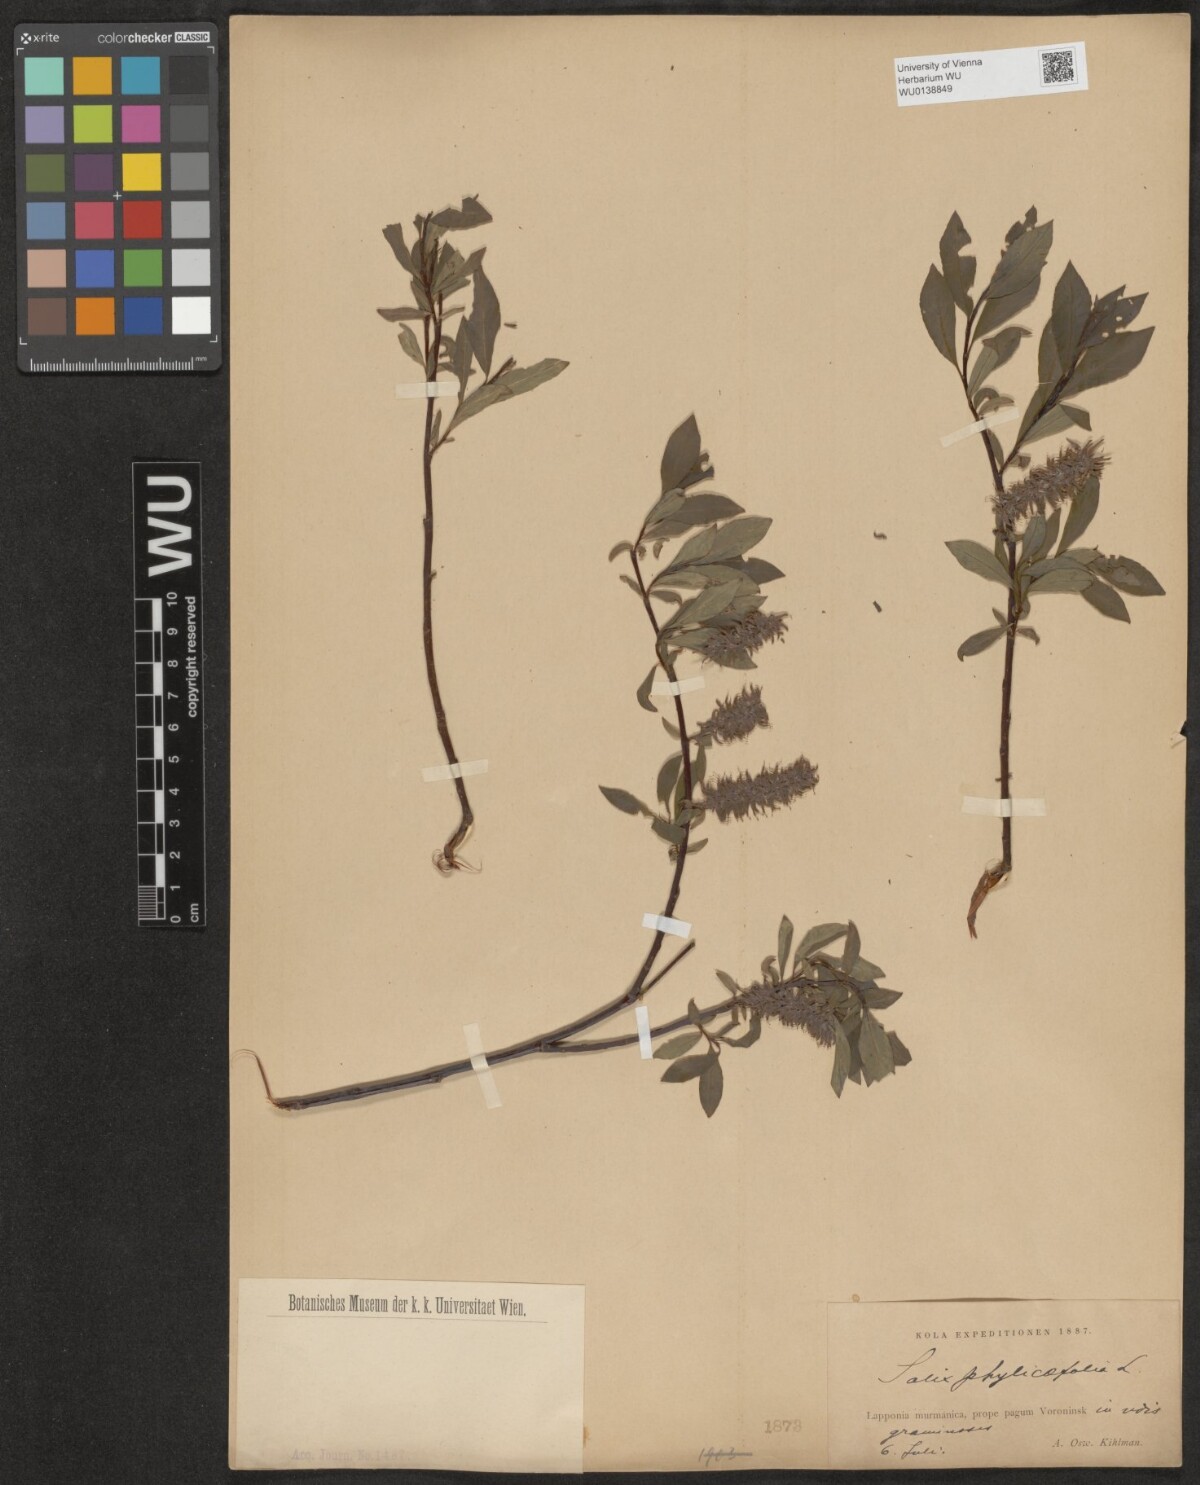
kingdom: Plantae
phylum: Tracheophyta
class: Magnoliopsida
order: Malpighiales
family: Salicaceae
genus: Salix
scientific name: Salix phylicifolia
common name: Tea-leaved willow
